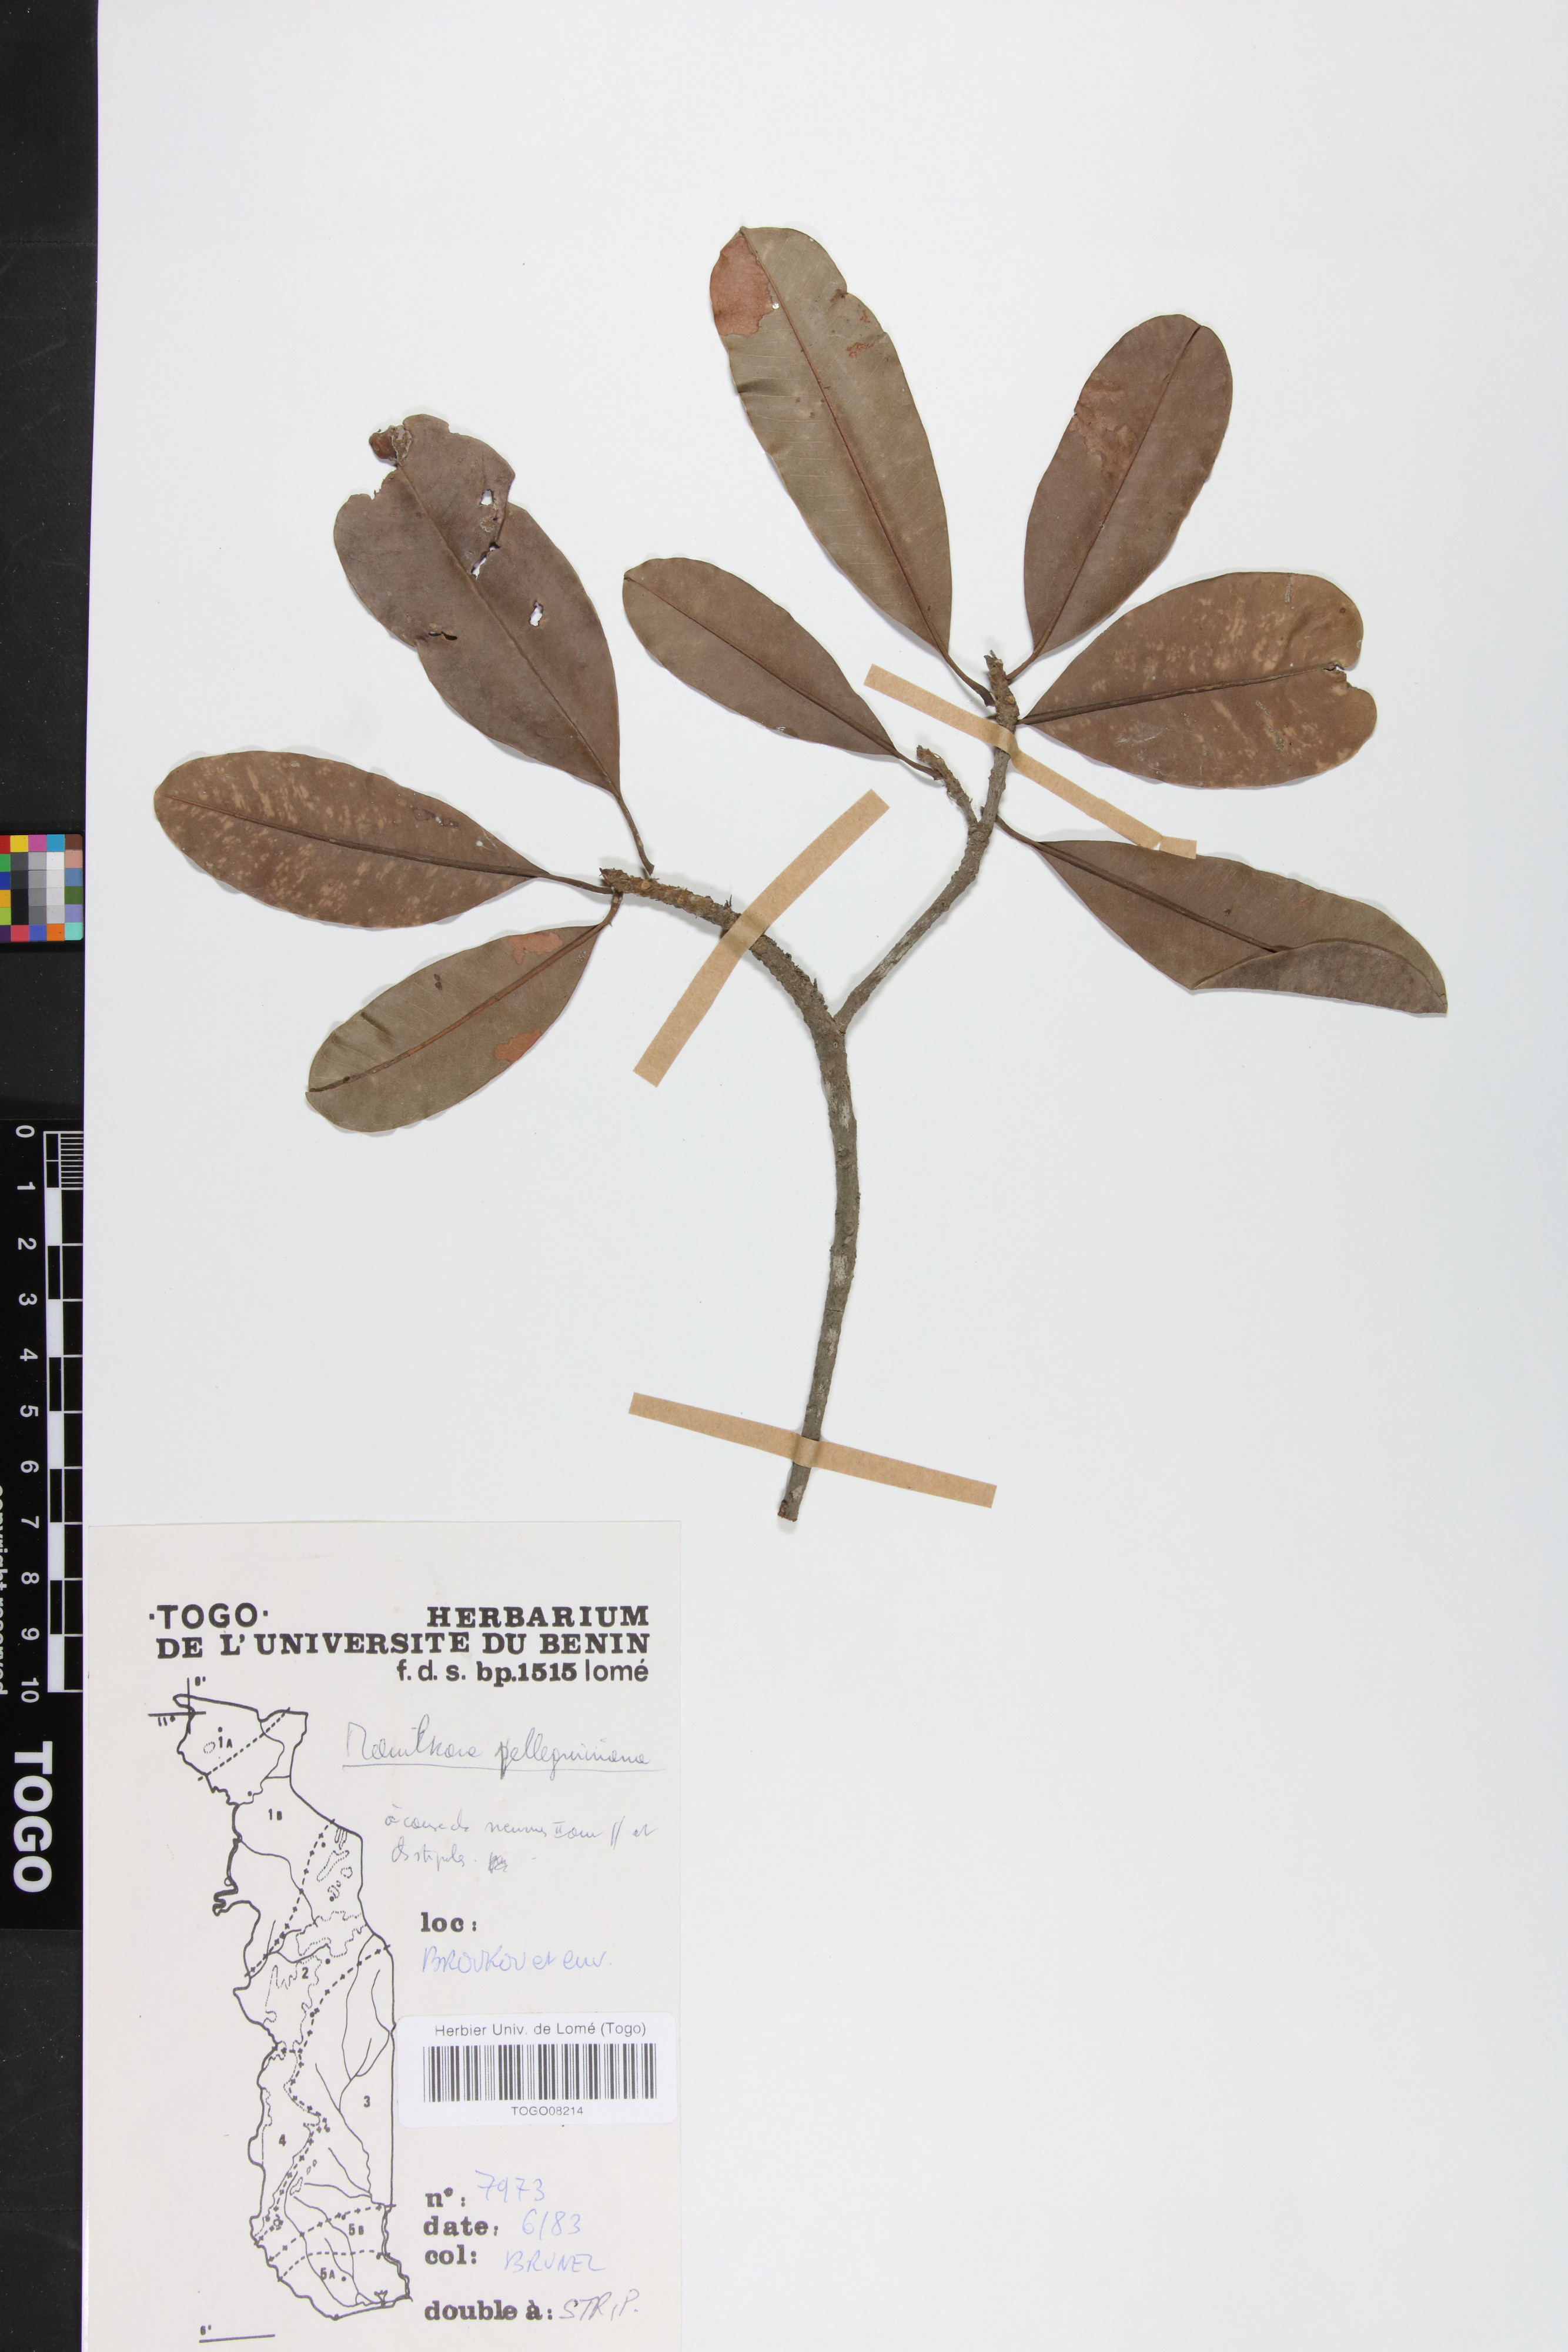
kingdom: Plantae
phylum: Tracheophyta
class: Magnoliopsida
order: Ericales
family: Sapotaceae
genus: Manilkara
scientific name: Manilkara pellegriniana
